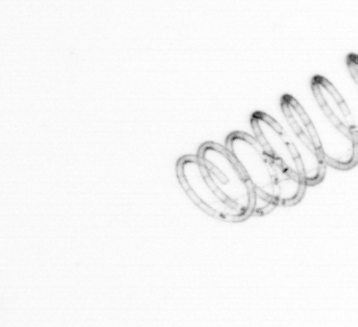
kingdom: Chromista
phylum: Ochrophyta
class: Bacillariophyceae
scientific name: Bacillariophyceae
